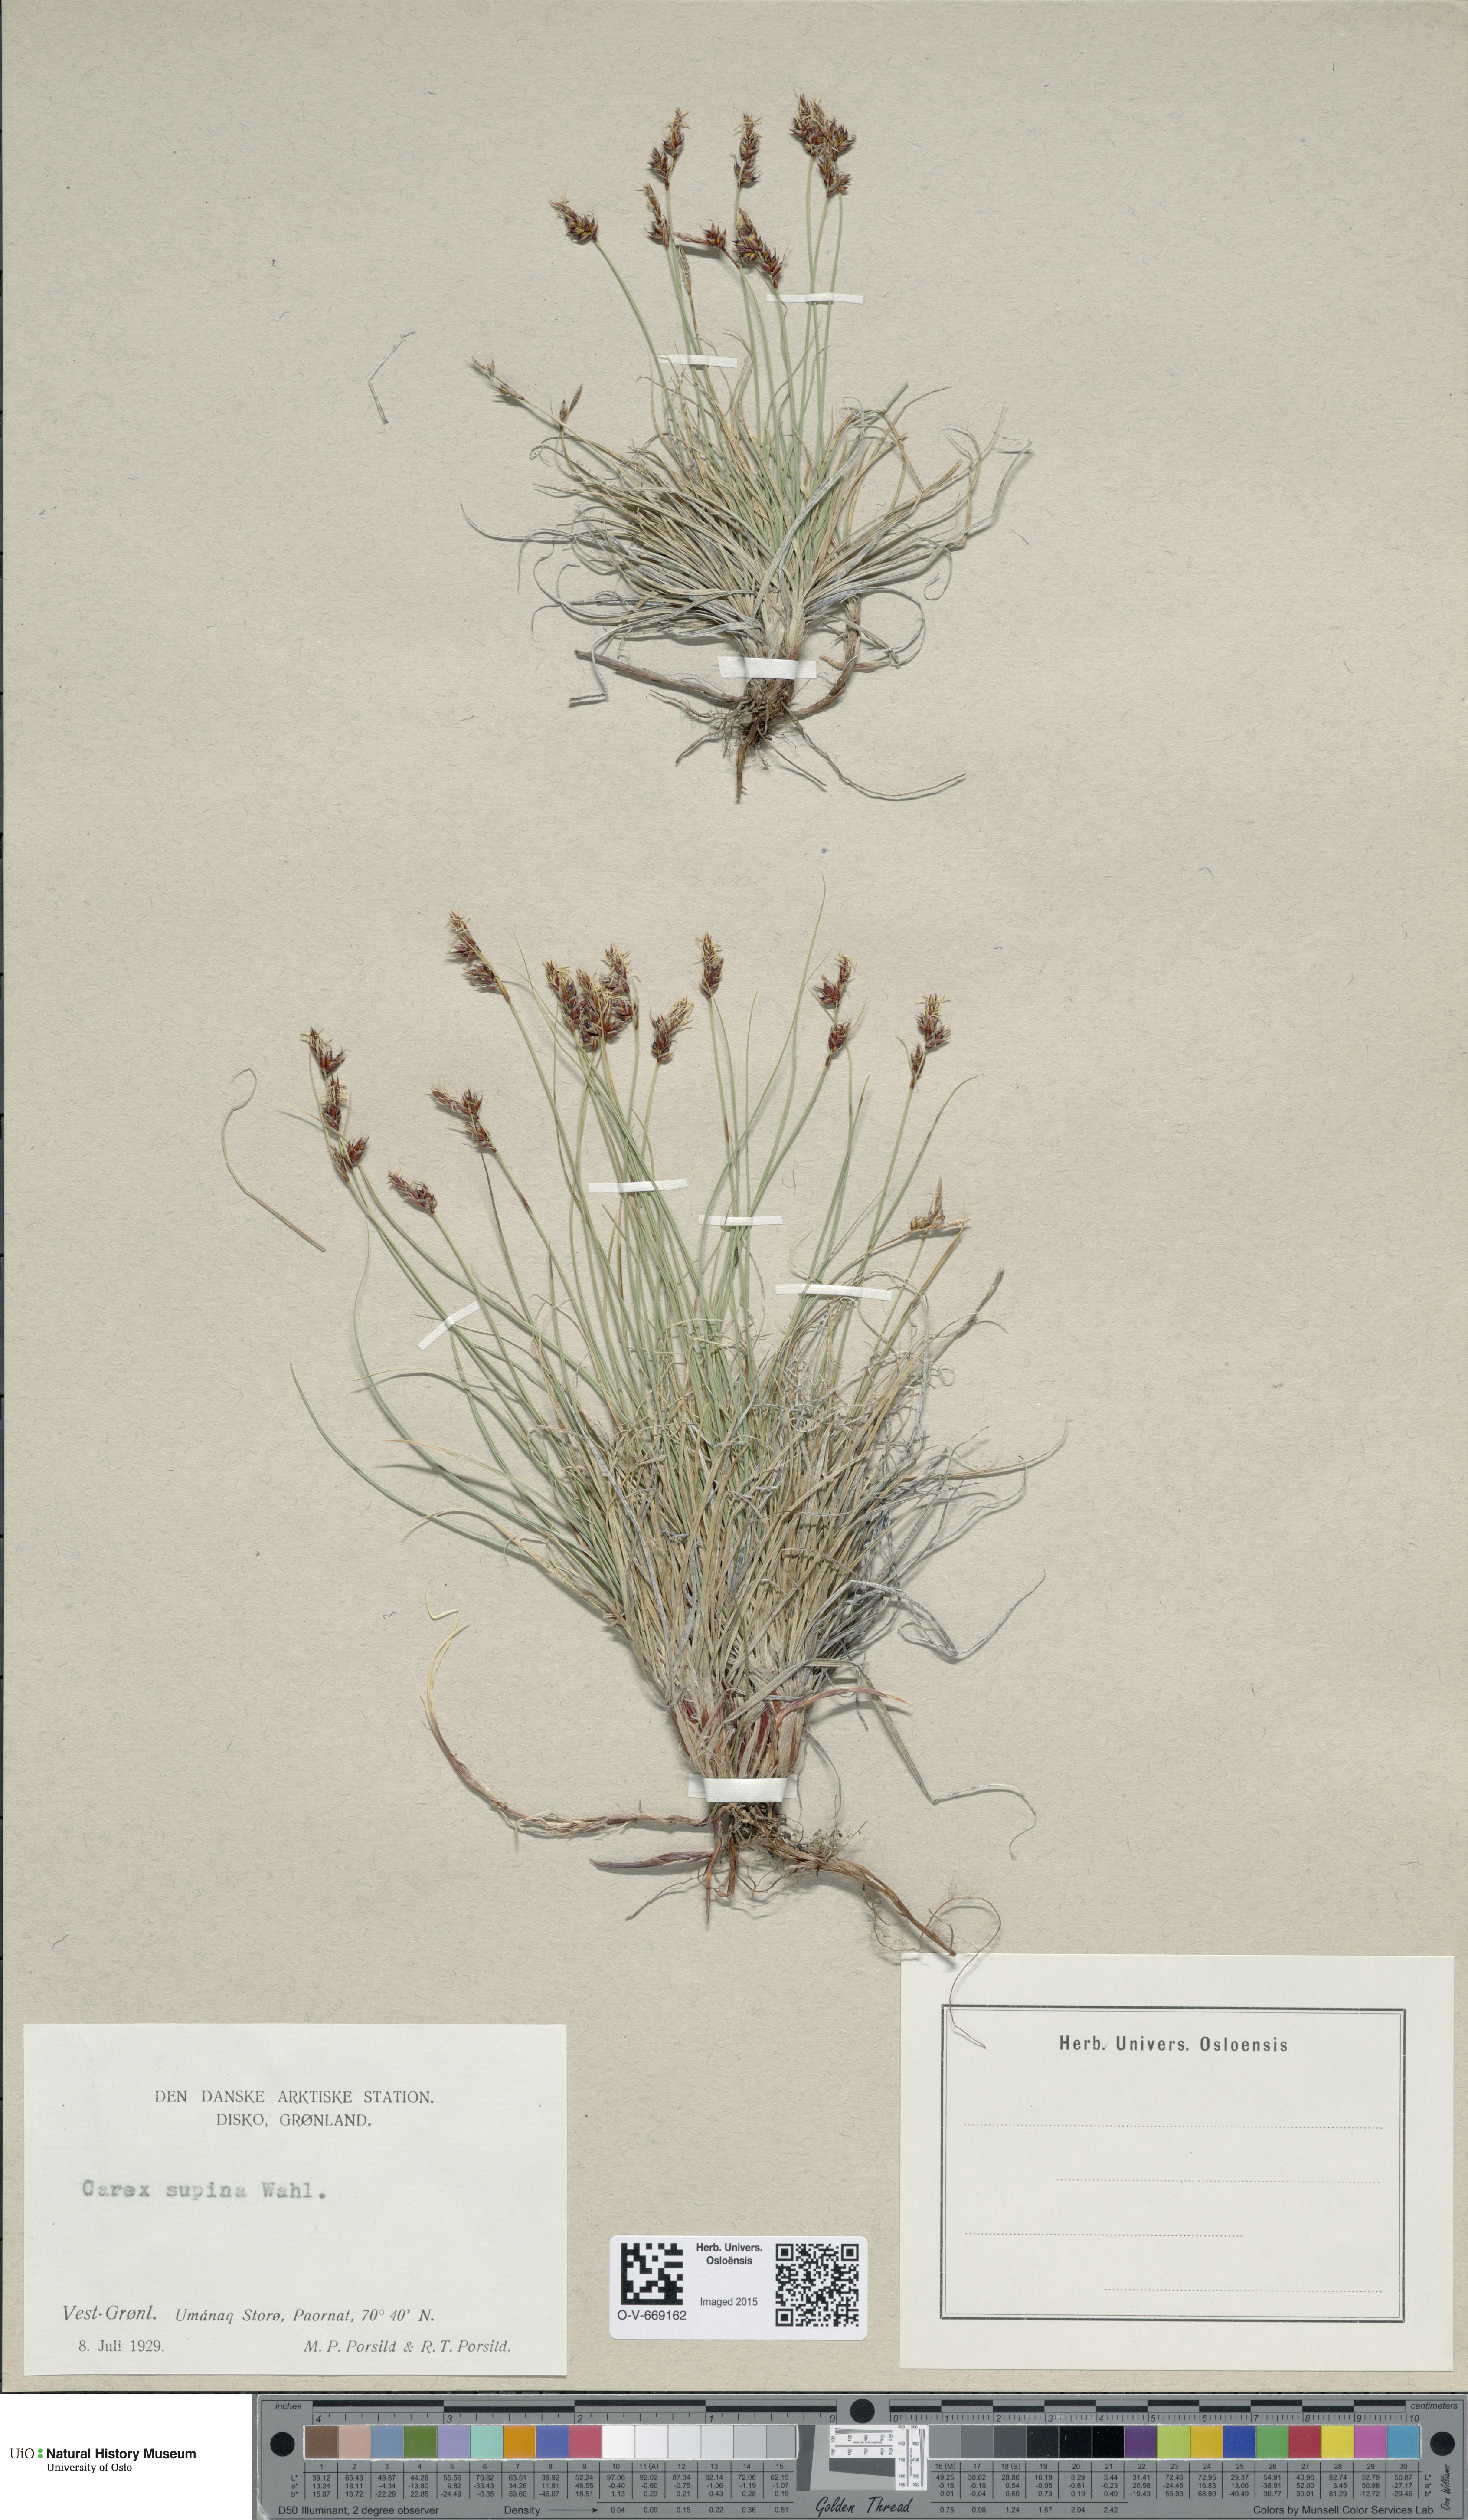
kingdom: Plantae
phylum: Tracheophyta
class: Liliopsida
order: Poales
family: Cyperaceae
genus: Carex
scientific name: Carex supina
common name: Lying-back sedge
